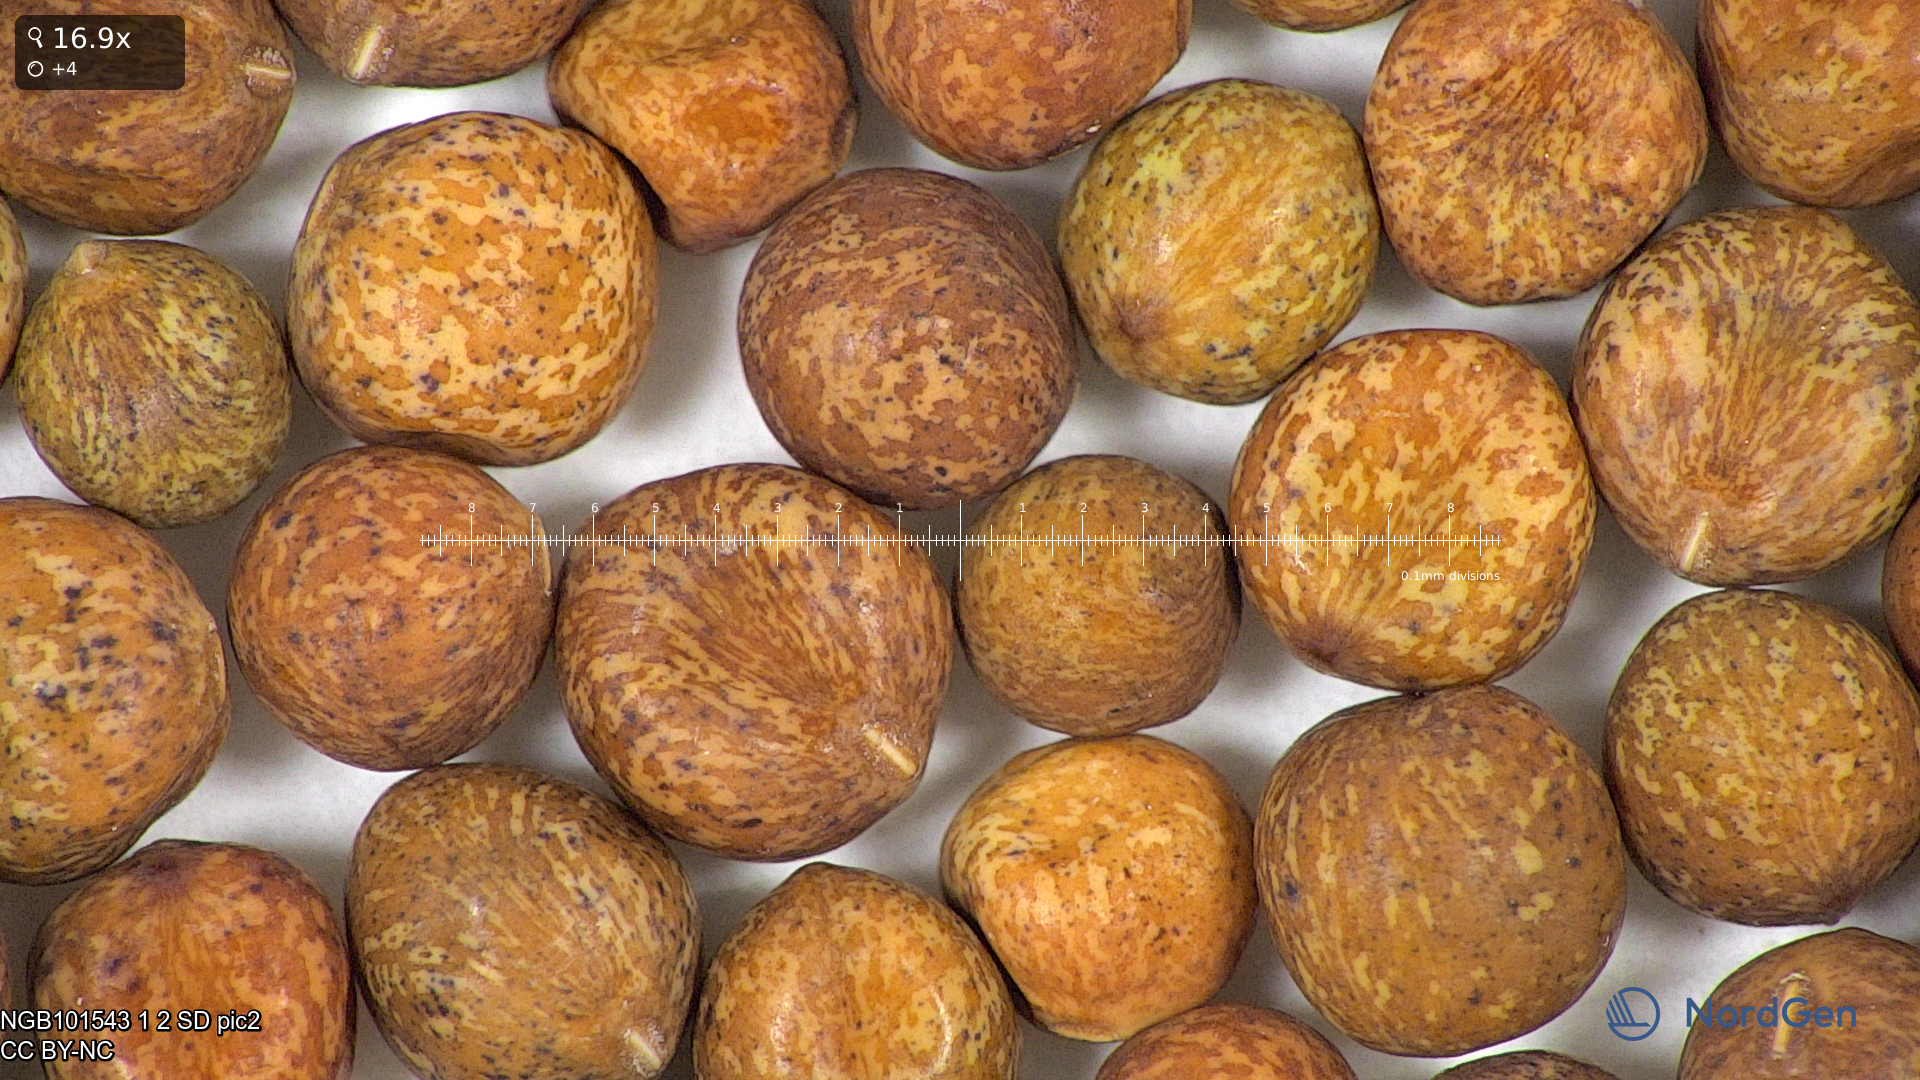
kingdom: Plantae
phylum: Tracheophyta
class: Magnoliopsida
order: Fabales
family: Fabaceae
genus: Lathyrus
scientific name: Lathyrus oleraceus
